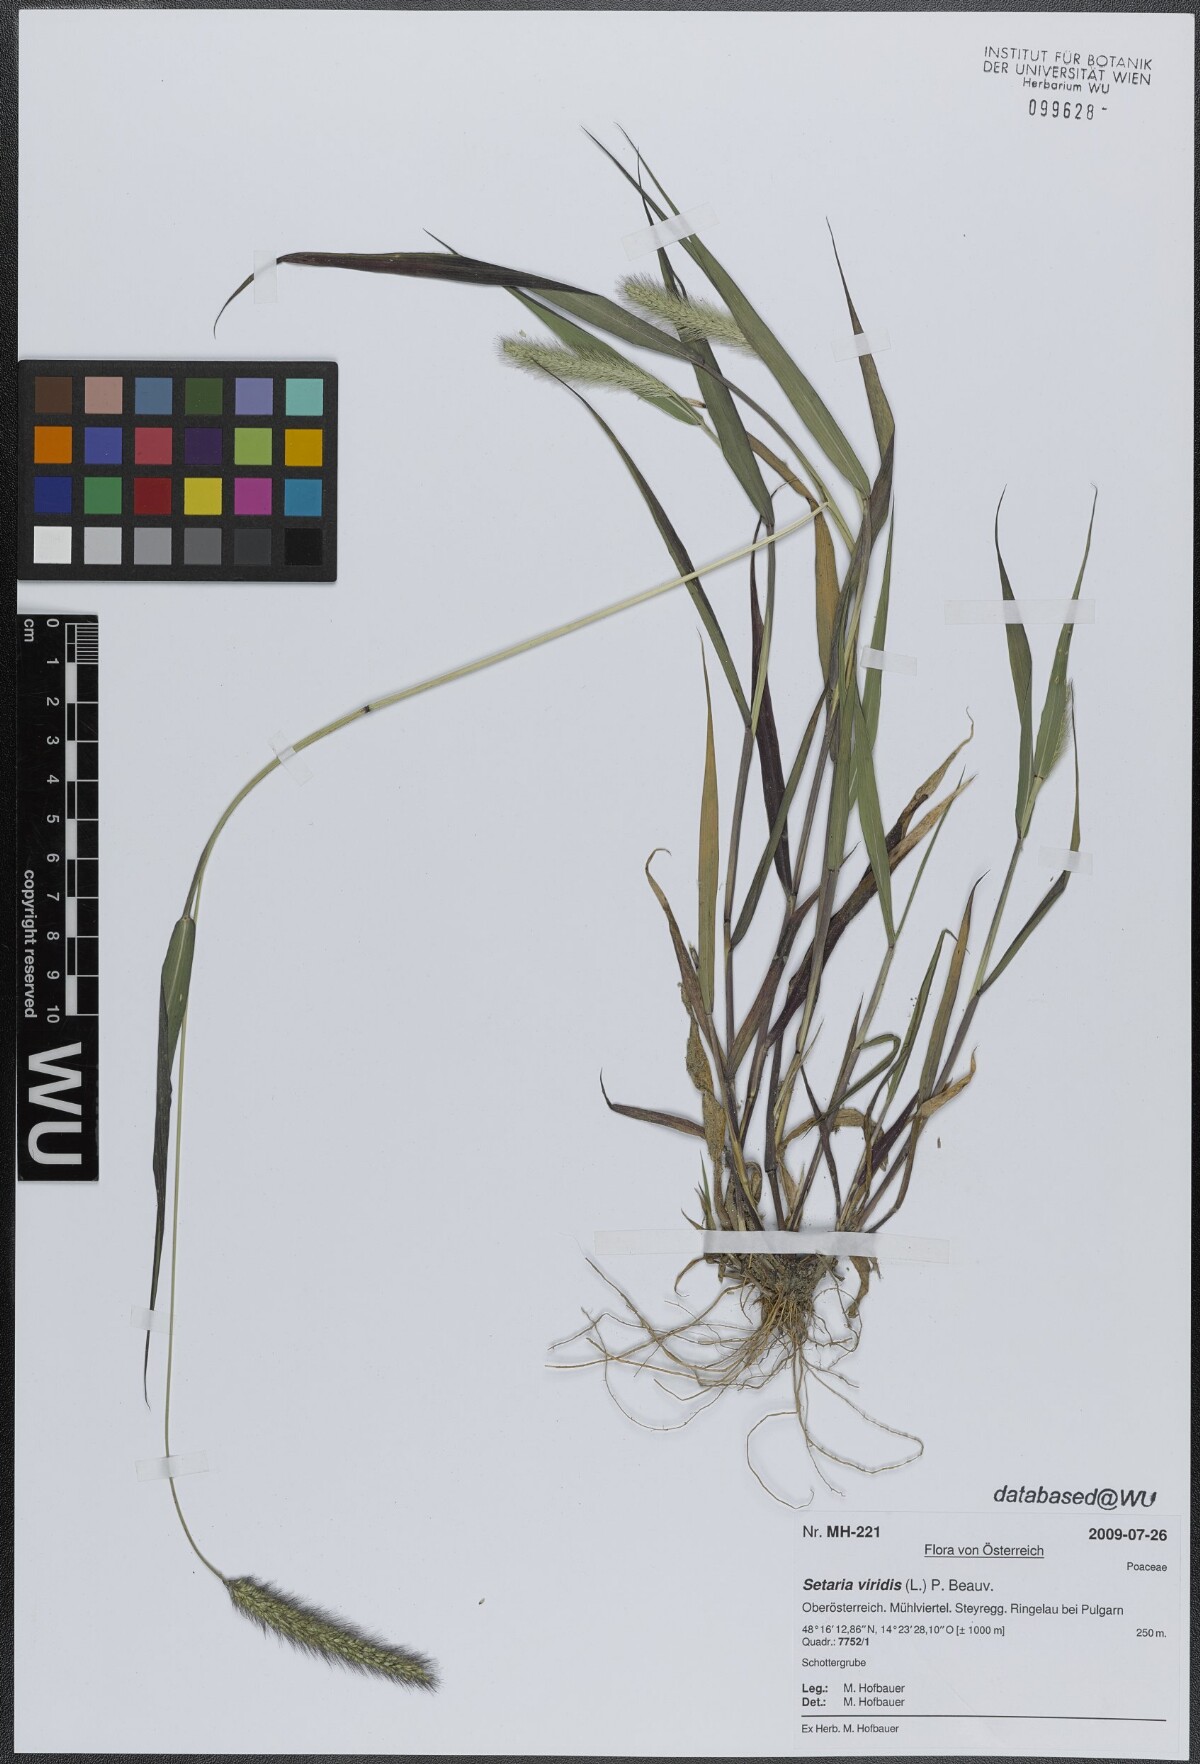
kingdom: Plantae
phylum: Tracheophyta
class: Liliopsida
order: Poales
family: Poaceae
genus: Setaria
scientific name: Setaria viridis
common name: Green bristlegrass
